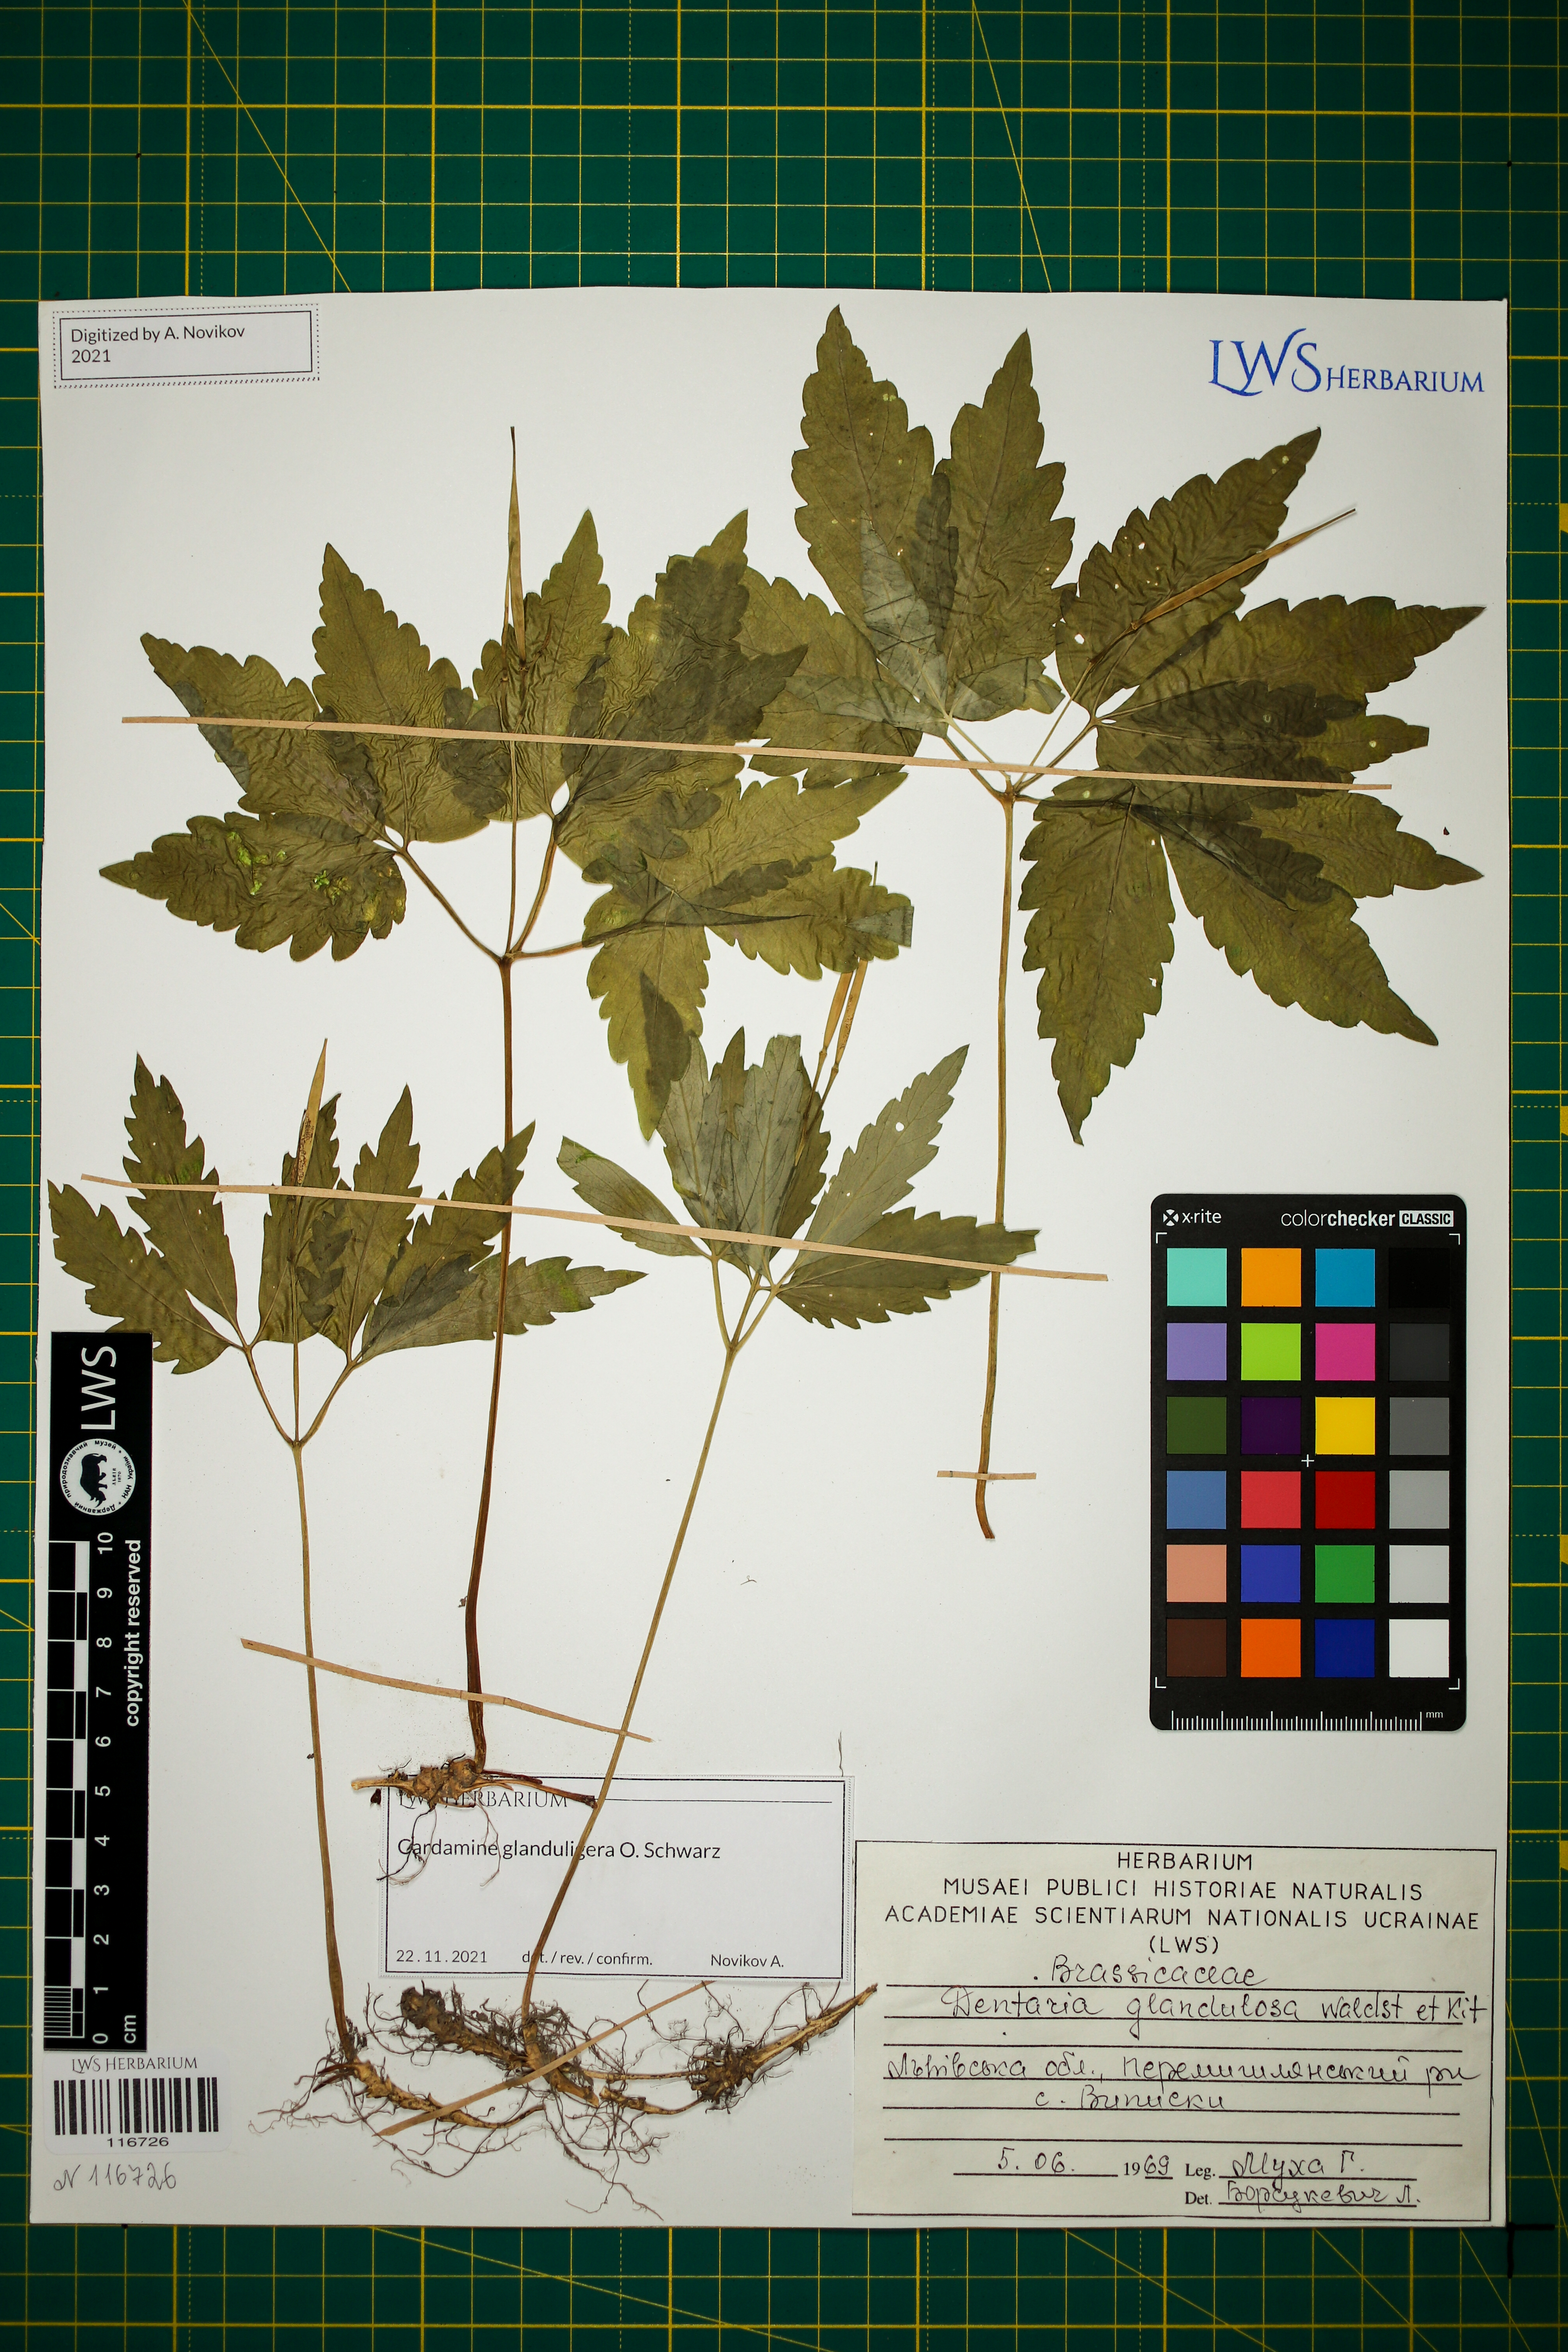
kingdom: Plantae
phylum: Tracheophyta
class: Magnoliopsida
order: Brassicales
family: Brassicaceae
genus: Cardamine
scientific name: Cardamine glanduligera
